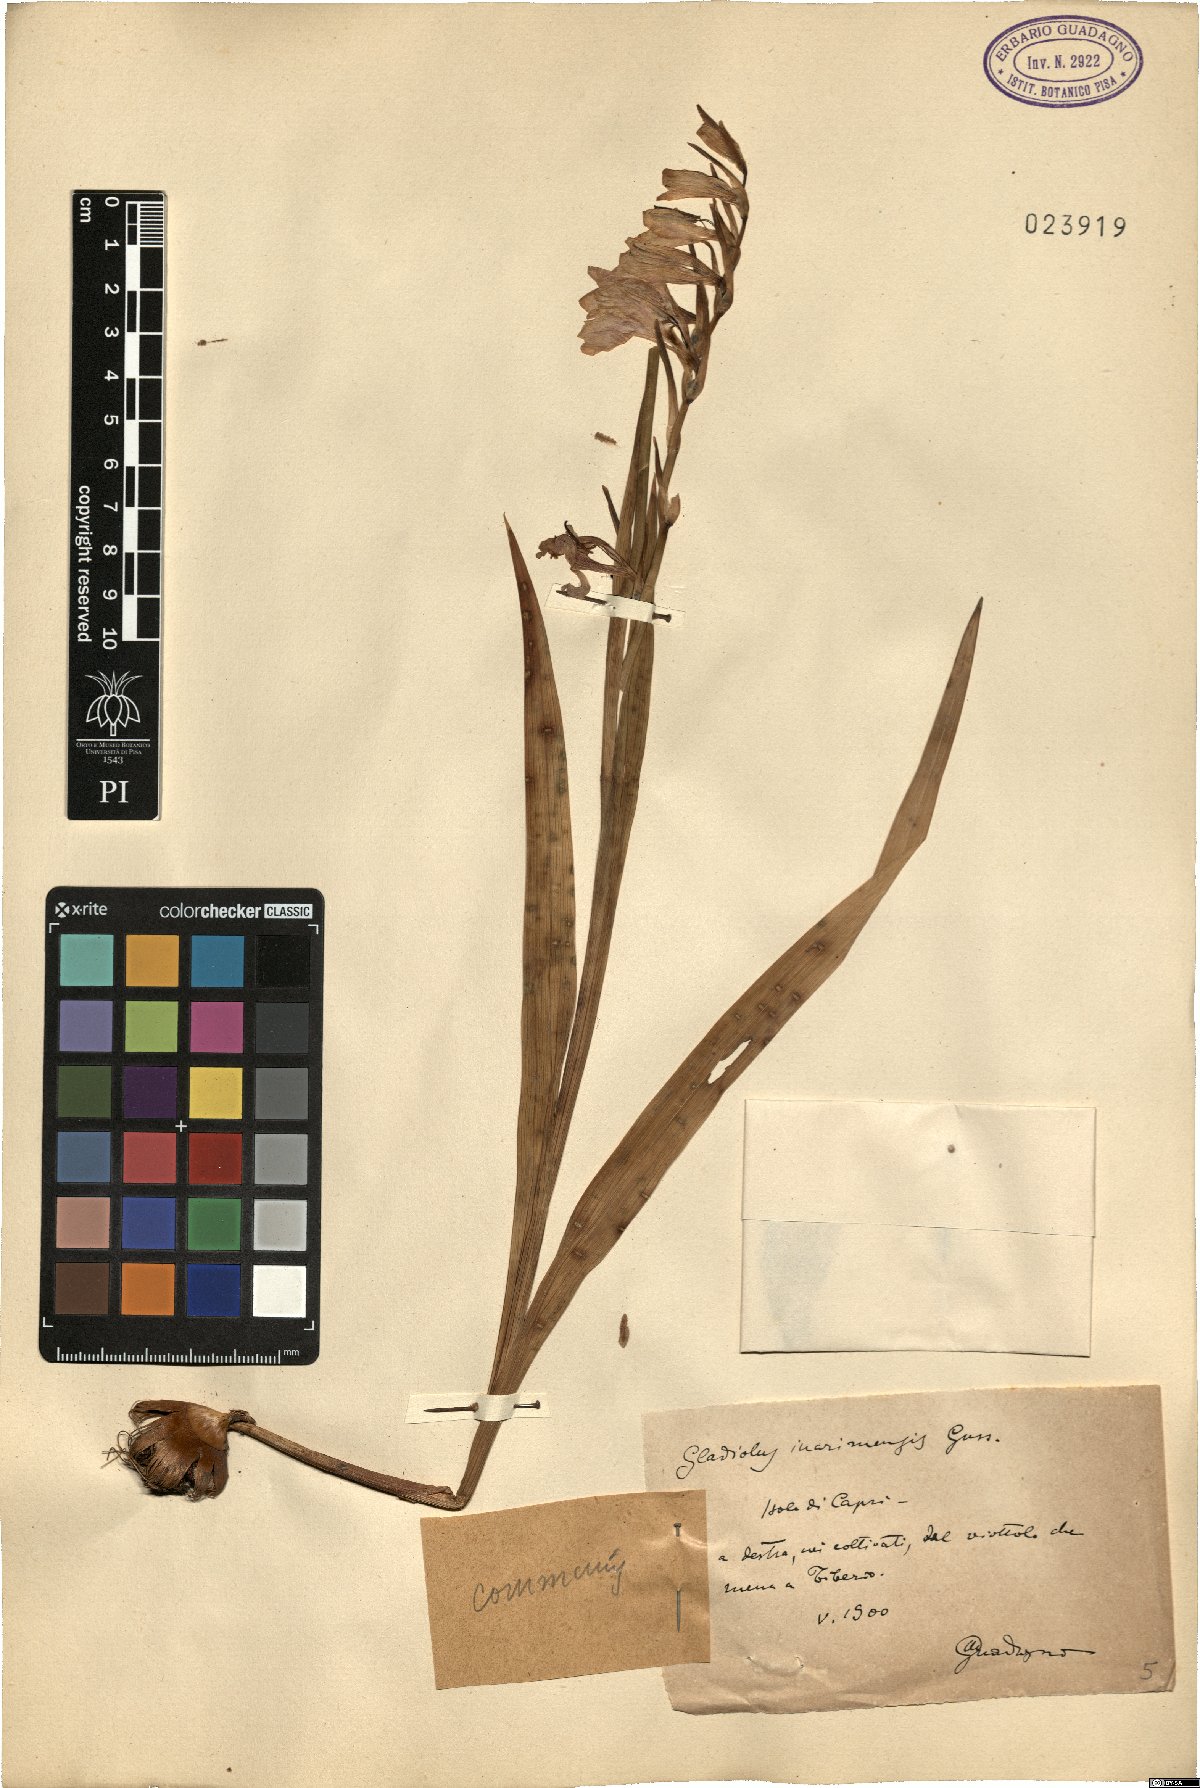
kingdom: Plantae
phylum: Tracheophyta
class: Liliopsida
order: Asparagales
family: Iridaceae
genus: Gladiolus
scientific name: Gladiolus inarimensis
